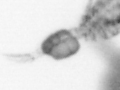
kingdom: Animalia
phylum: Annelida
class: Polychaeta
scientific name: Polychaeta
